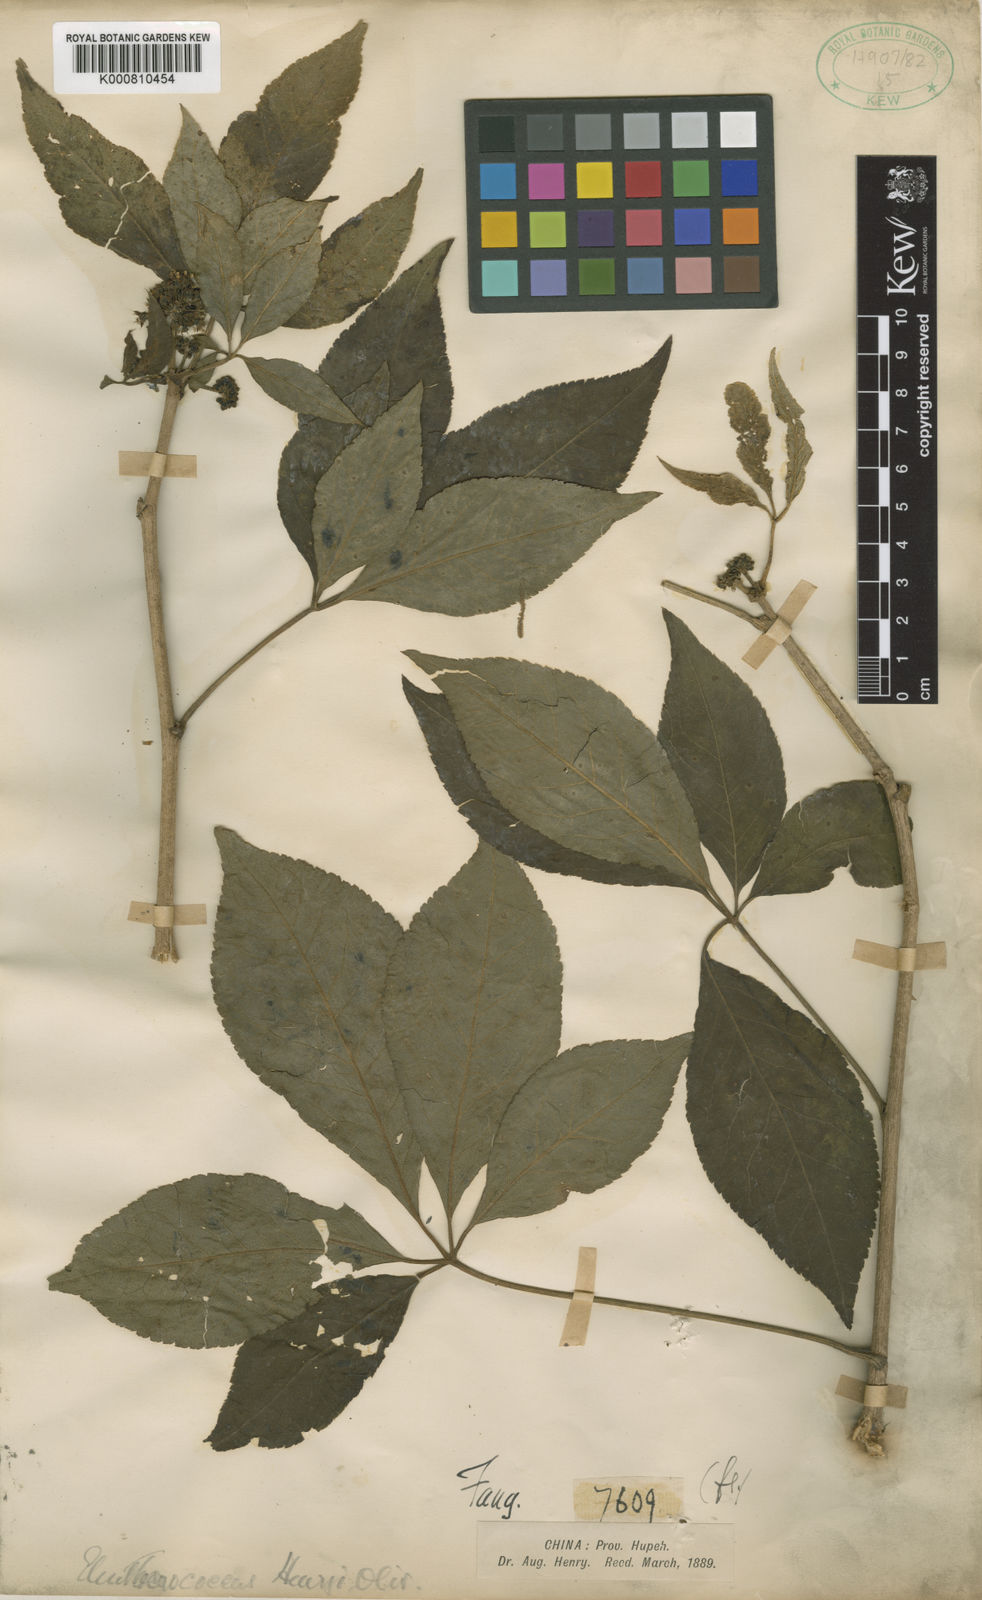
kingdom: Plantae
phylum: Tracheophyta
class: Magnoliopsida
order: Apiales
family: Araliaceae
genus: Eleutherococcus
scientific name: Eleutherococcus henryi
